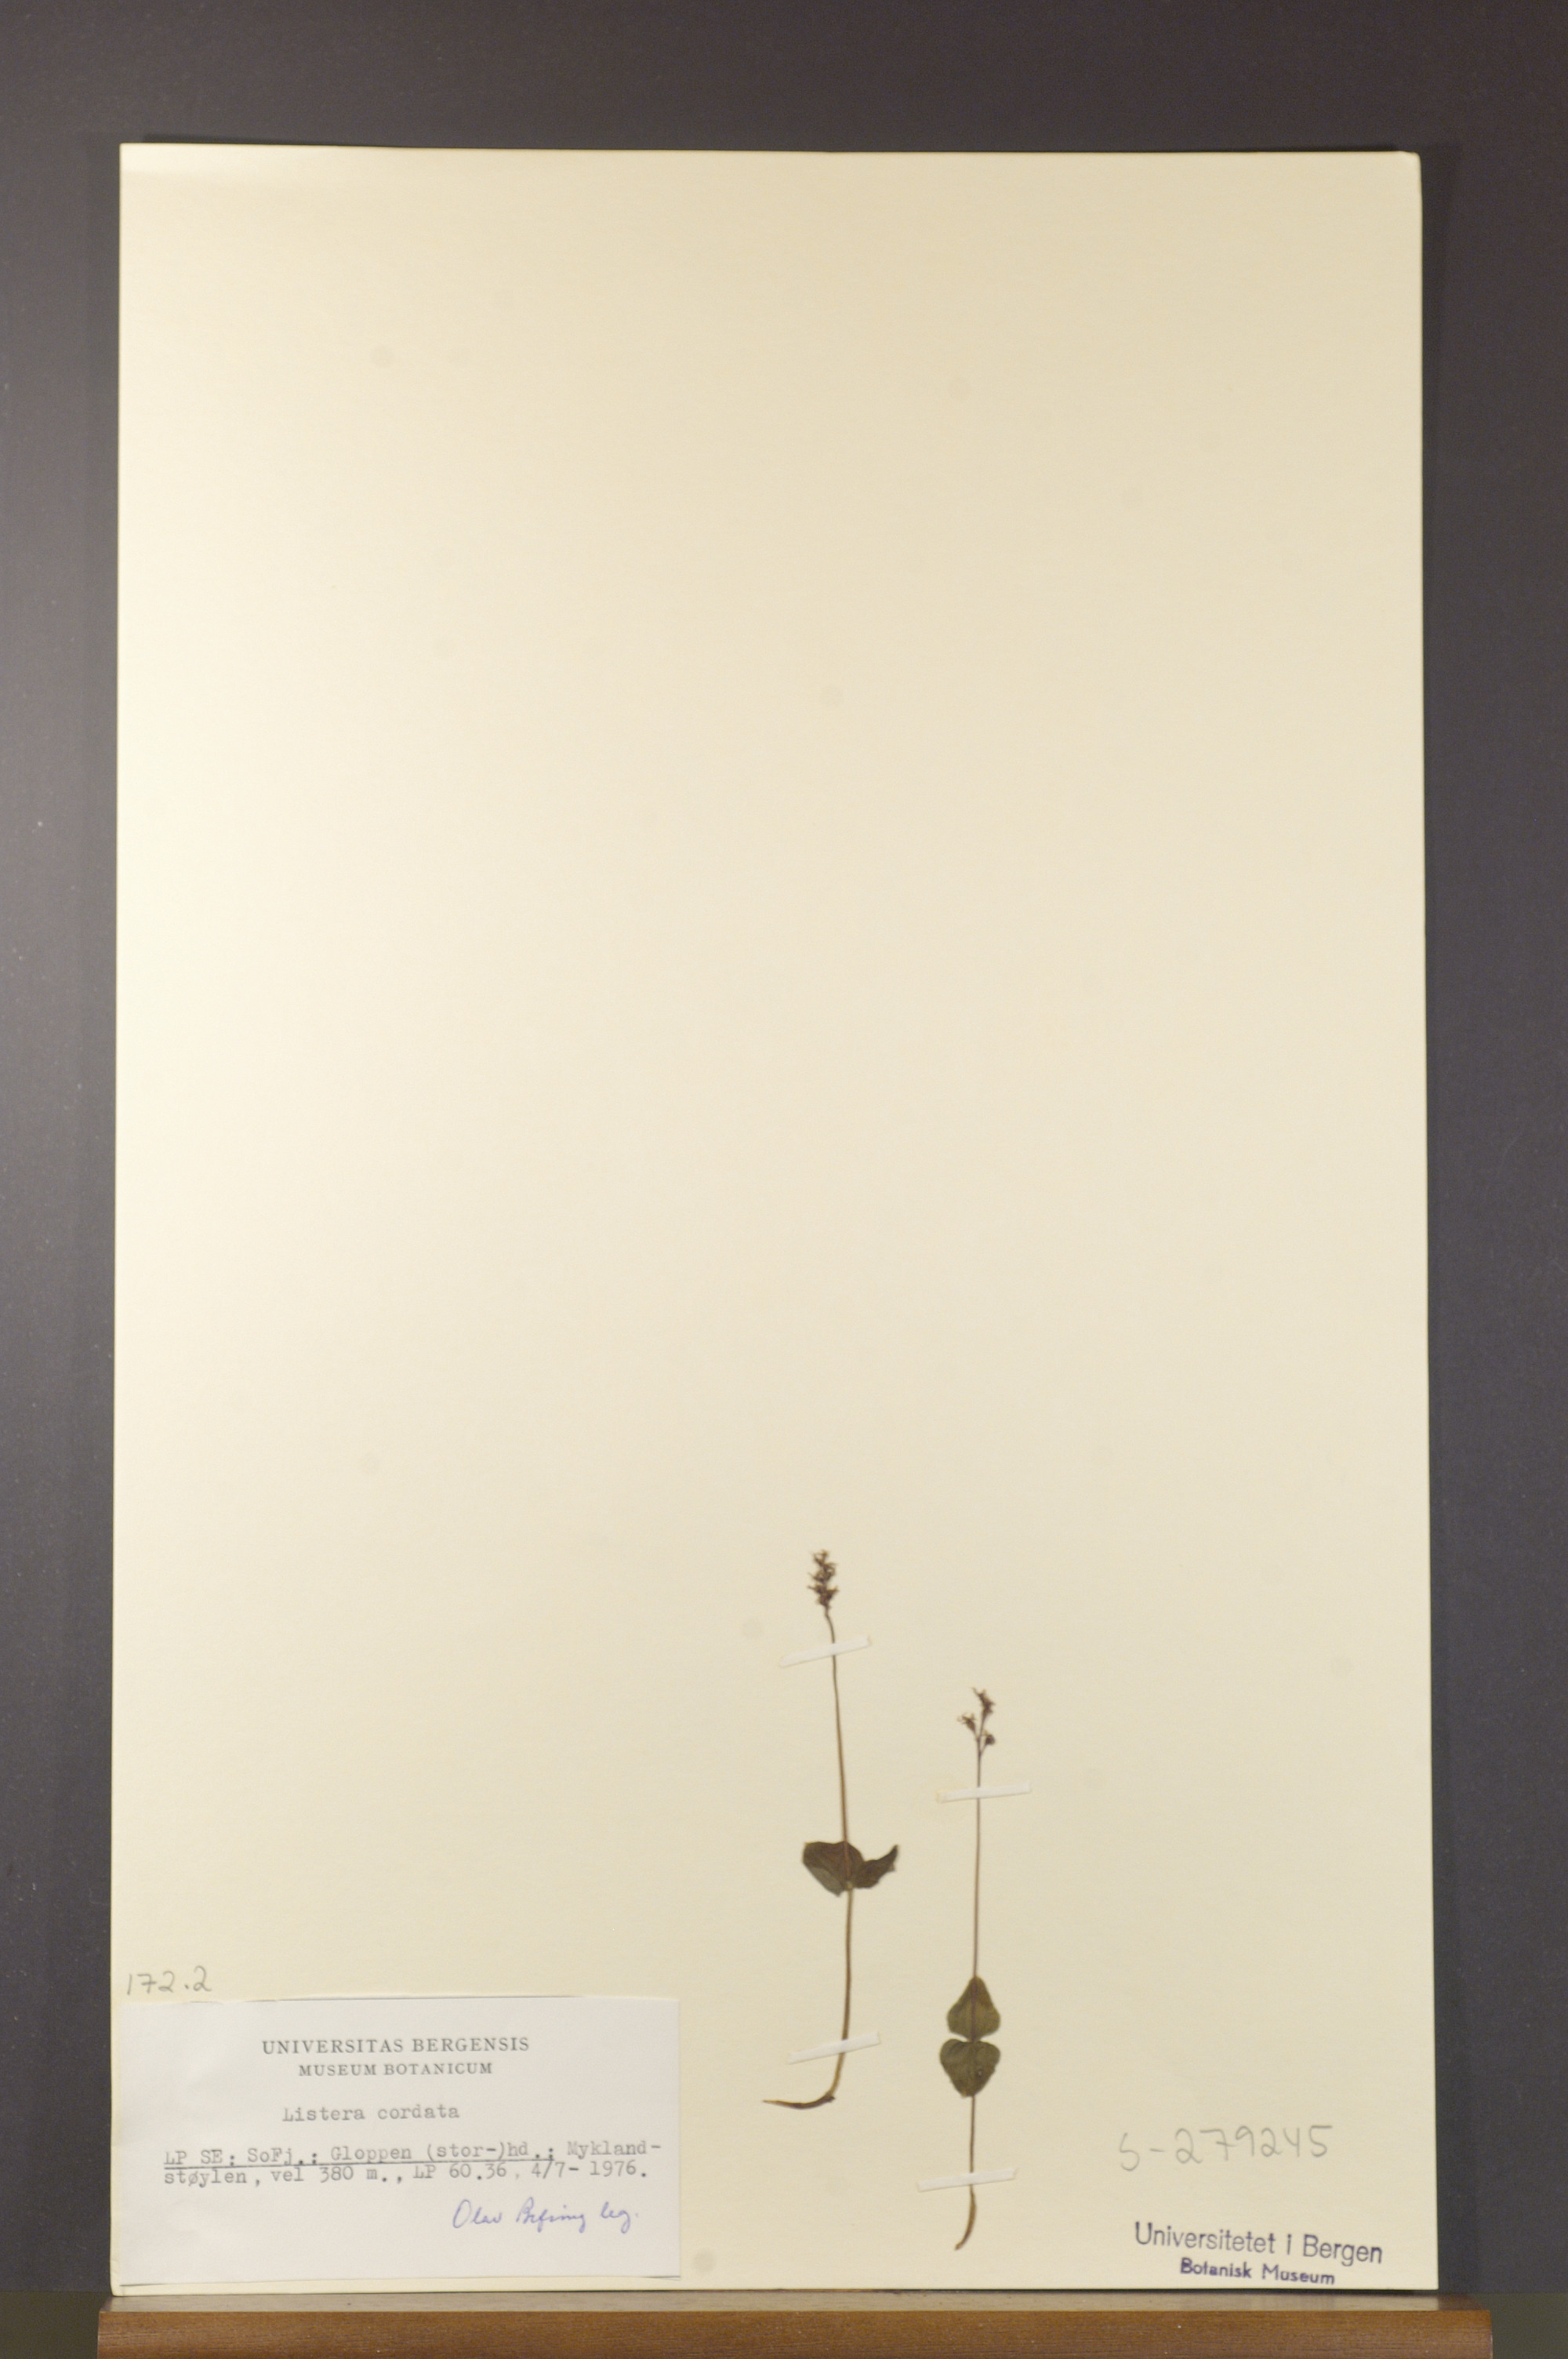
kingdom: Plantae
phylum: Tracheophyta
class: Liliopsida
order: Asparagales
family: Orchidaceae
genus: Neottia
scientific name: Neottia cordata
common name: Lesser twayblade
